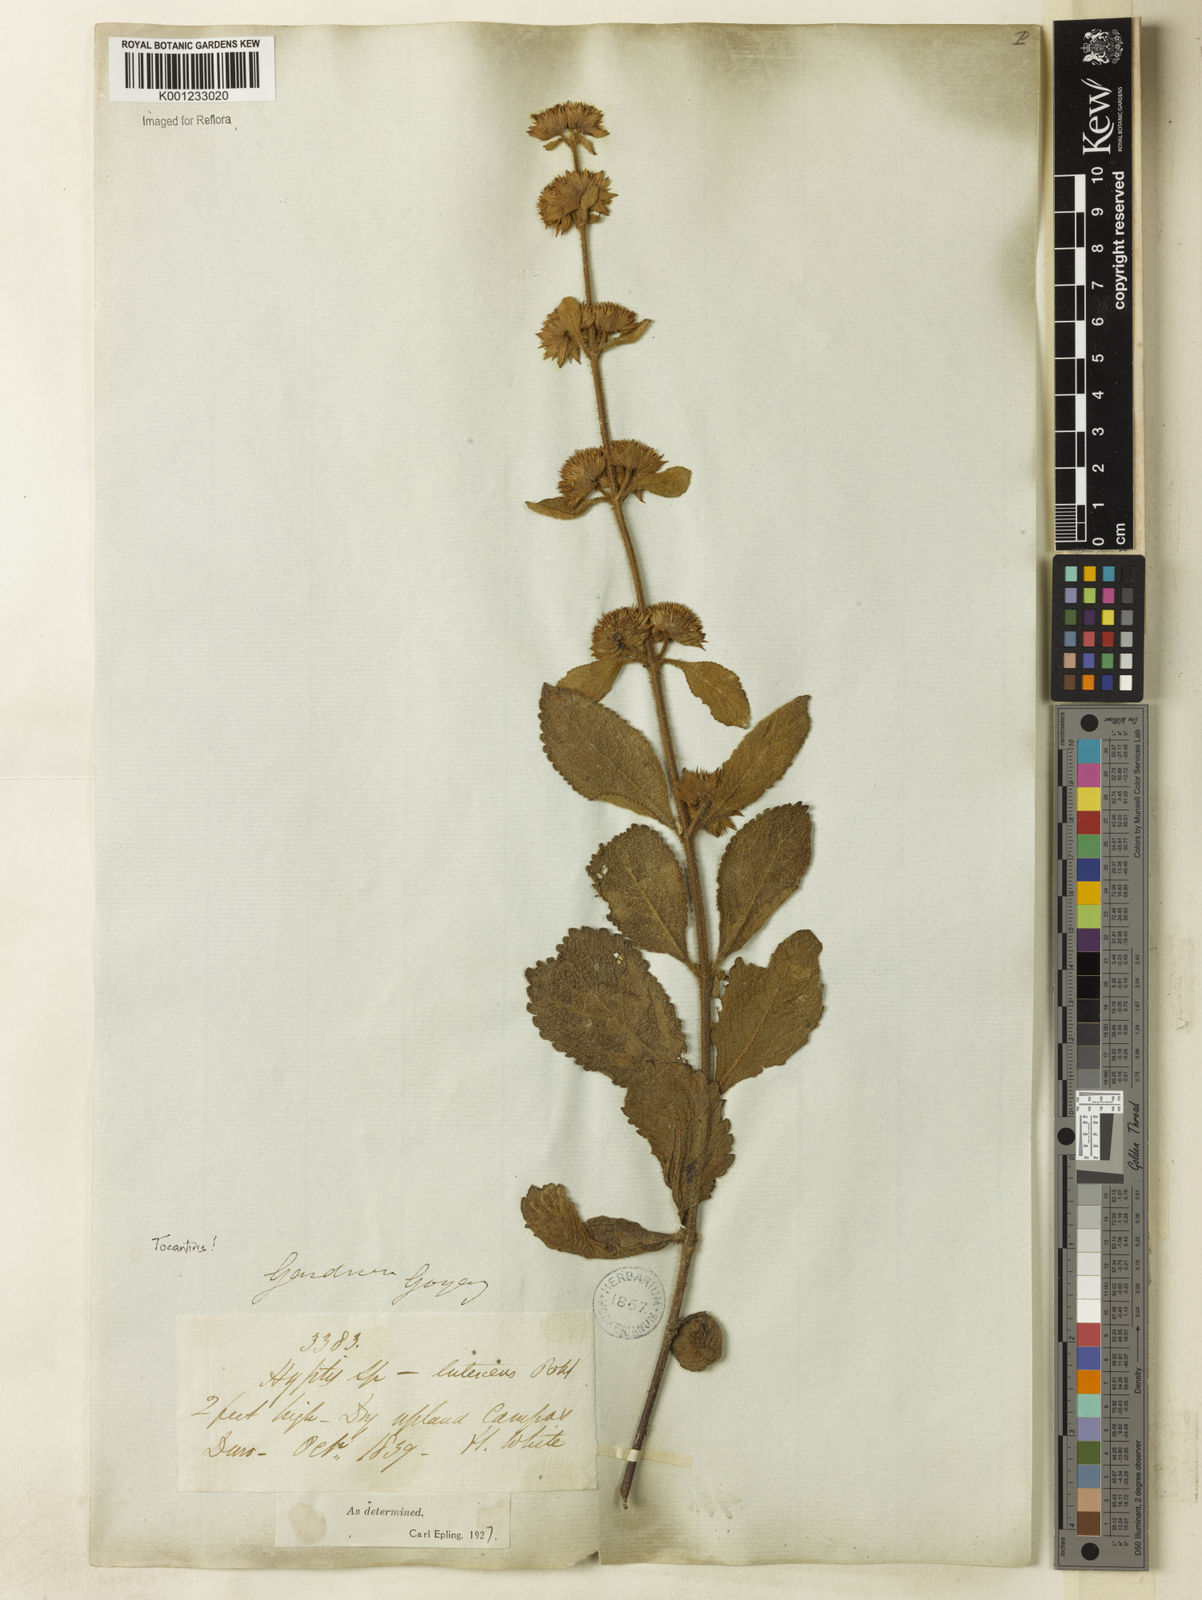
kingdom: Plantae
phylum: Tracheophyta
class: Magnoliopsida
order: Lamiales
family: Lamiaceae
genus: Hyptis
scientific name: Hyptis lutescens
